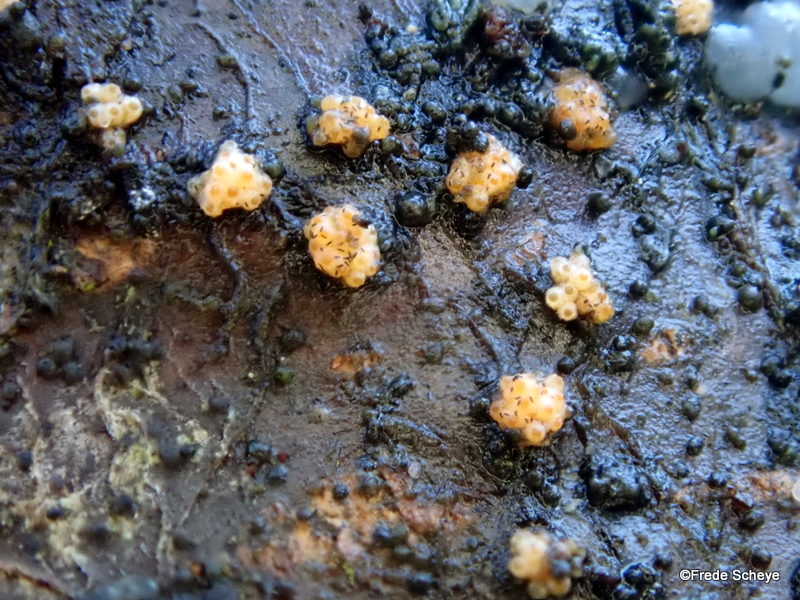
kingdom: Fungi
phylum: Ascomycota
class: Dothideomycetes
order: Pleosporales
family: Massariaceae
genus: Massaria
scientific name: Massaria inquinans
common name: ahorn-kulvulkan
